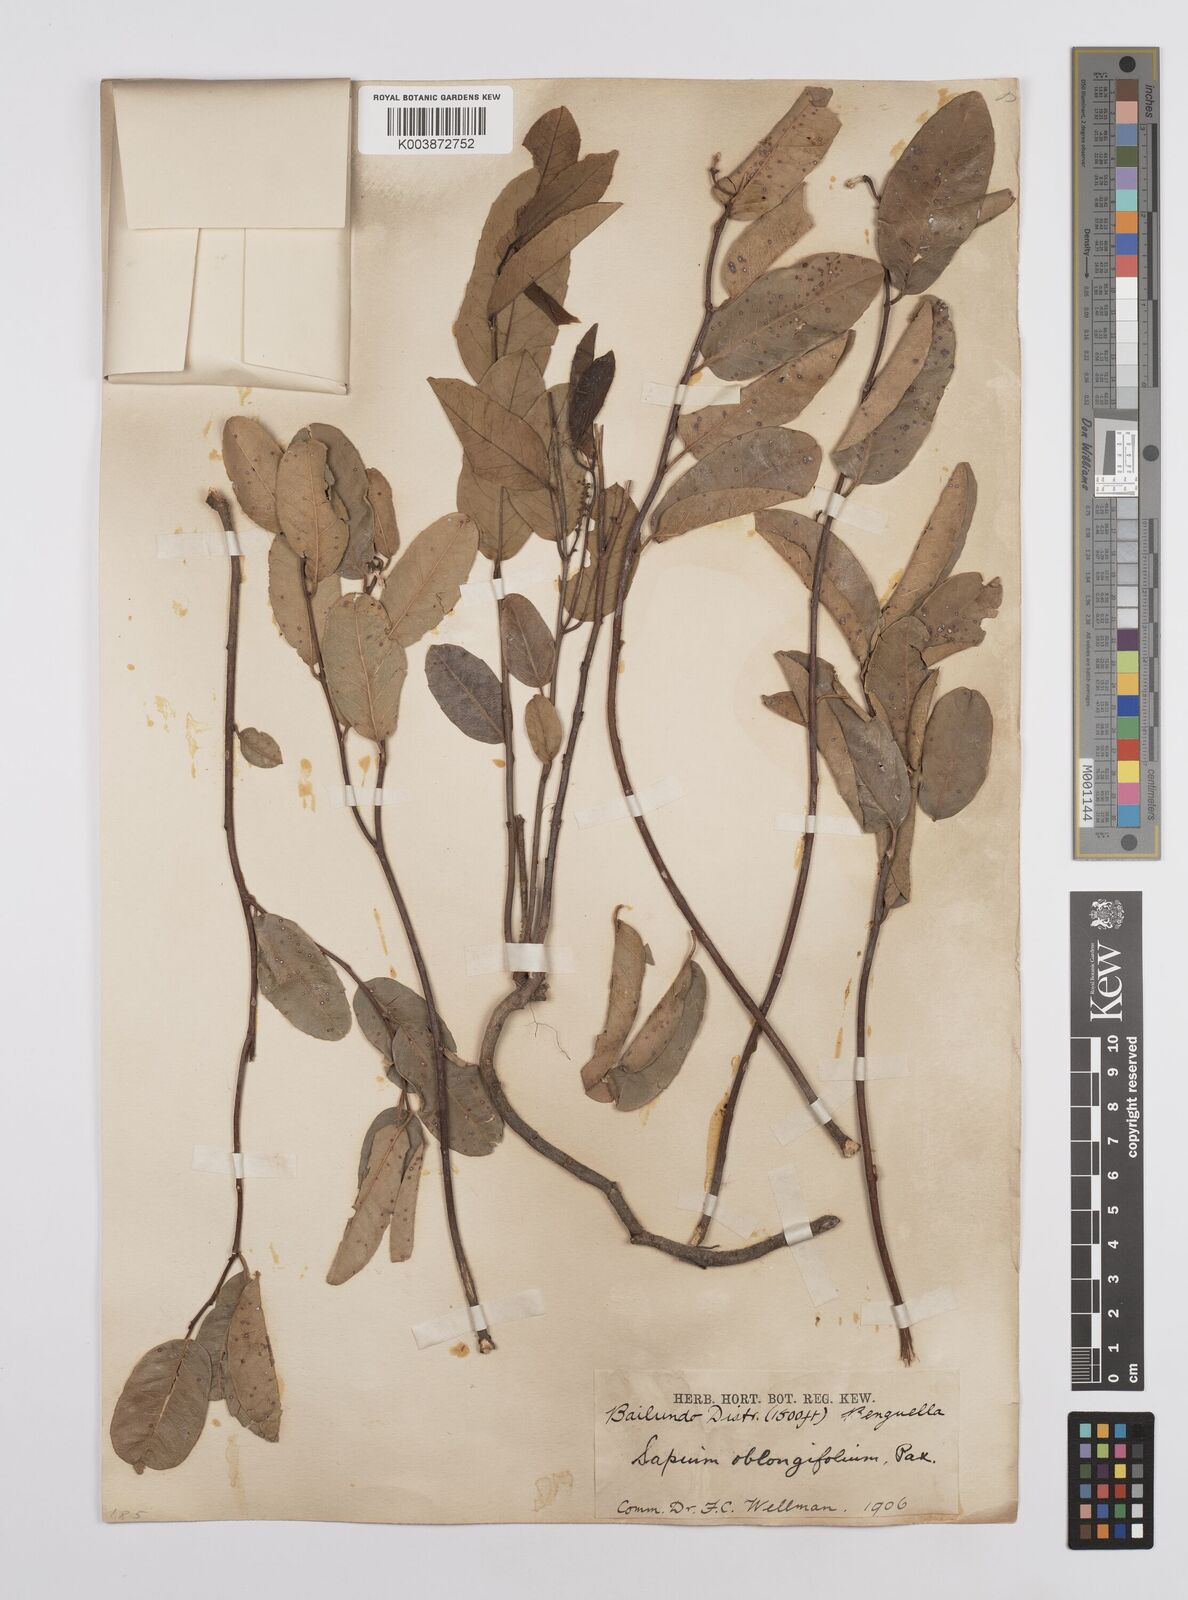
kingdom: Plantae
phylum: Tracheophyta
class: Magnoliopsida
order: Malpighiales
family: Euphorbiaceae
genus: Sclerocroton
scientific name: Sclerocroton oblongifolius
